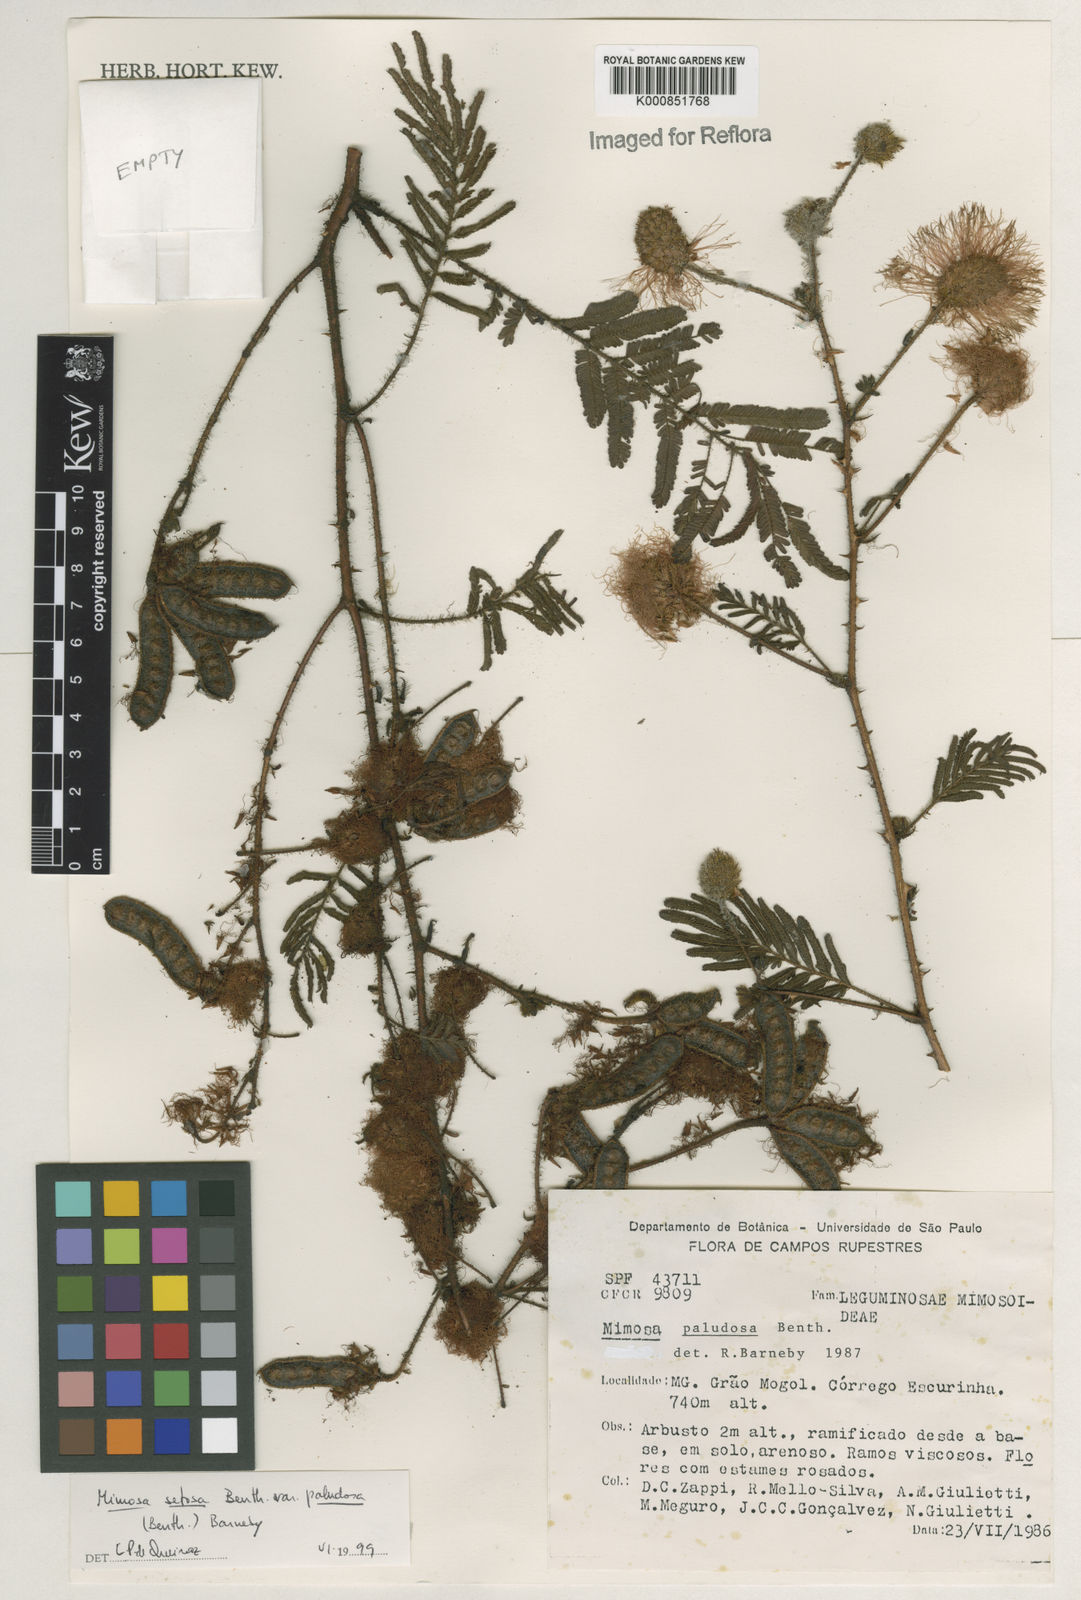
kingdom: Plantae
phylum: Tracheophyta
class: Magnoliopsida
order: Fabales
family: Fabaceae
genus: Mimosa
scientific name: Mimosa paludosa
